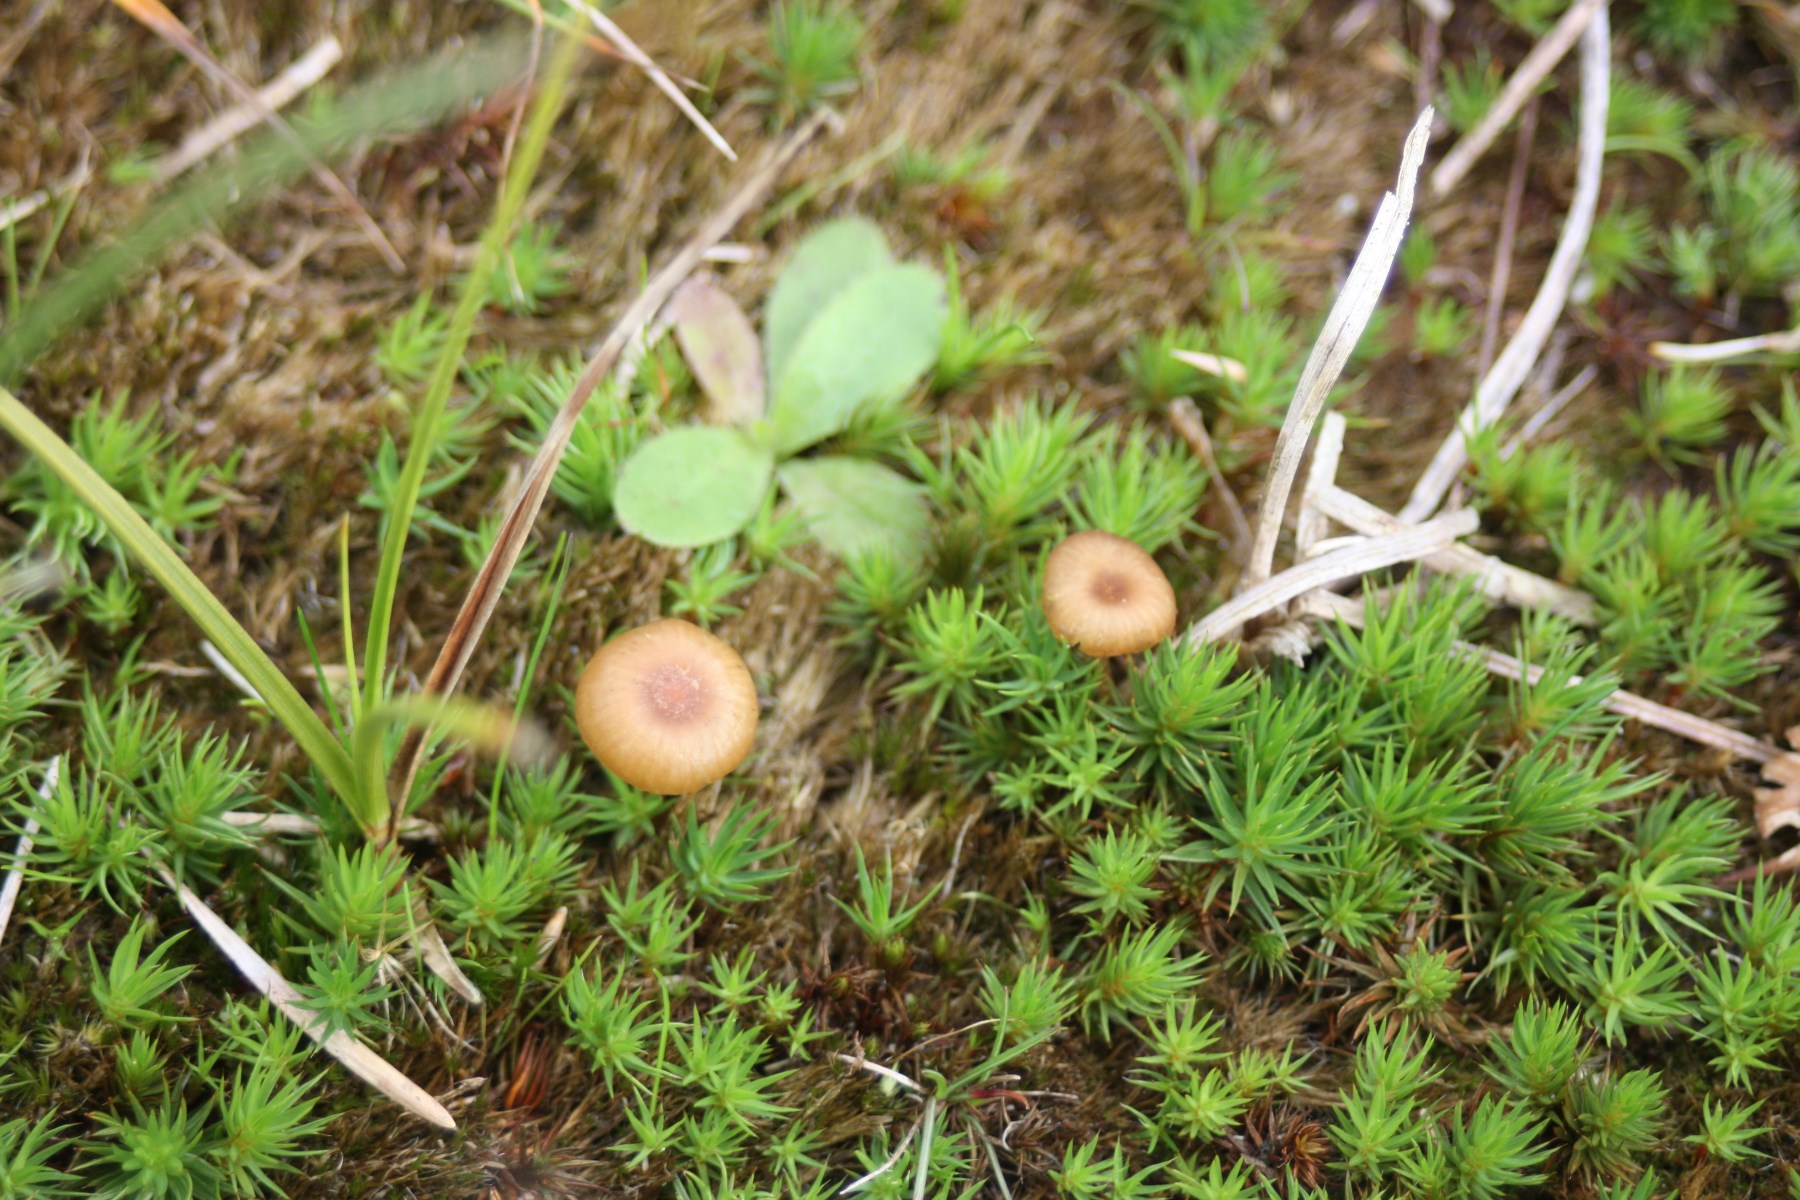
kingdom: Fungi
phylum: Basidiomycota
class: Agaricomycetes
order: Agaricales
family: Tricholomataceae
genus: Omphalina
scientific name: Omphalina
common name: navlehat
